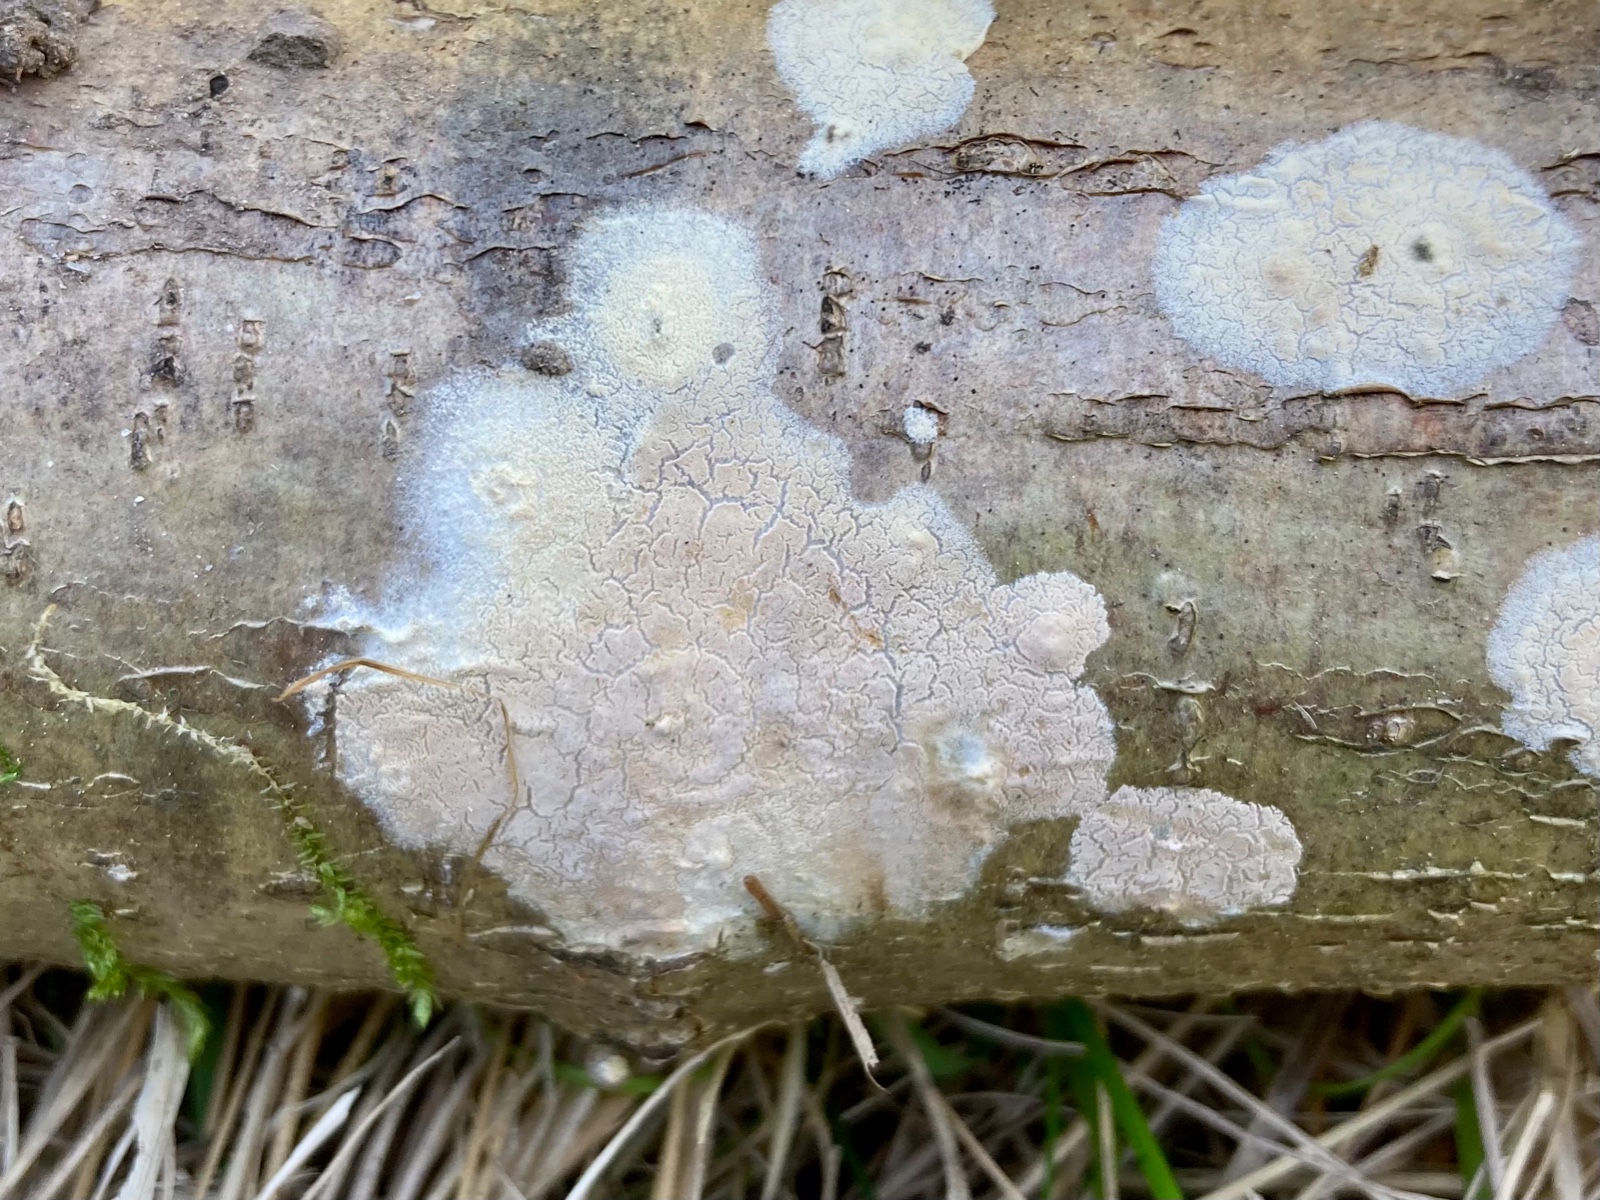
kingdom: Fungi
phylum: Basidiomycota
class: Agaricomycetes
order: Agaricales
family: Physalacriaceae
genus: Cylindrobasidium
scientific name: Cylindrobasidium evolvens
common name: sprækkehinde
